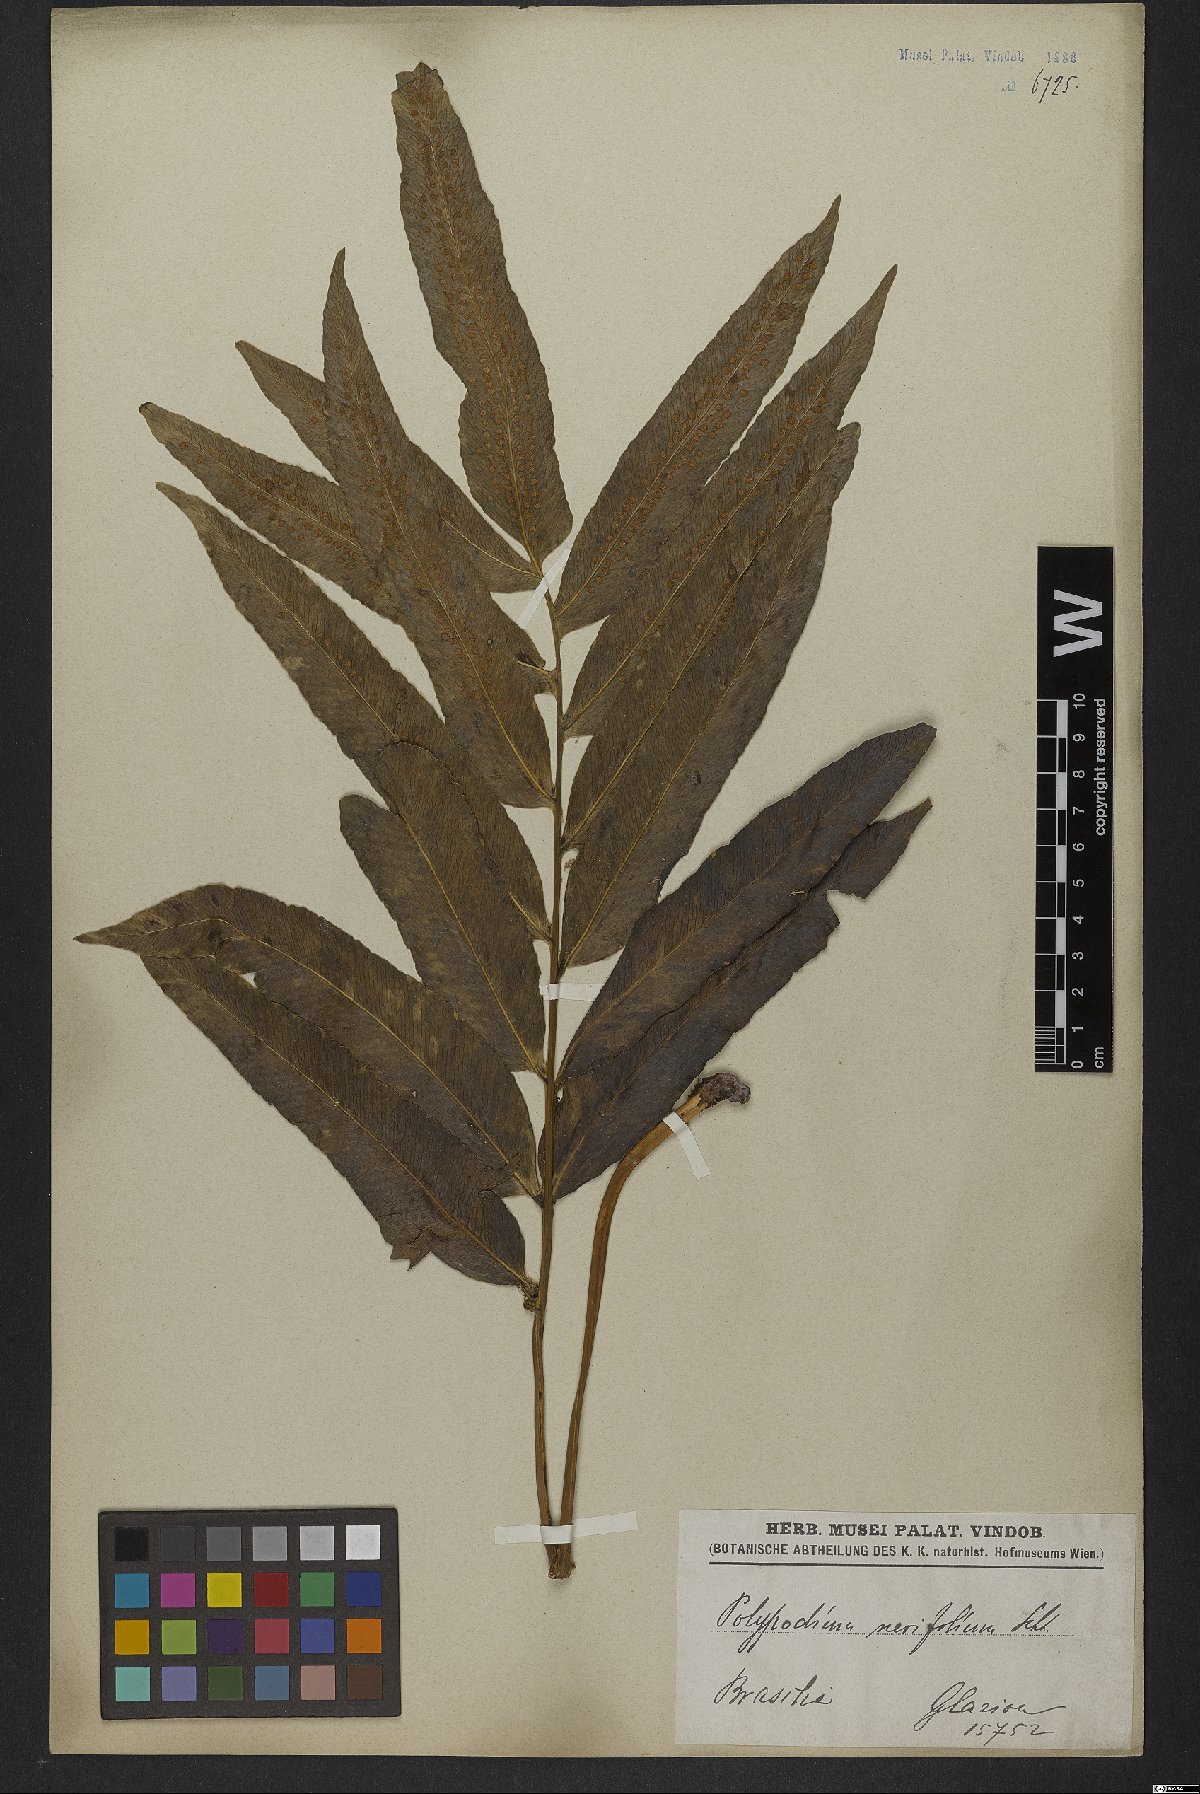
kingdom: Plantae
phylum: Tracheophyta
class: Polypodiopsida
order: Polypodiales
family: Polypodiaceae
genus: Serpocaulon
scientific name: Serpocaulon triseriale
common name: Angle-vein fern
